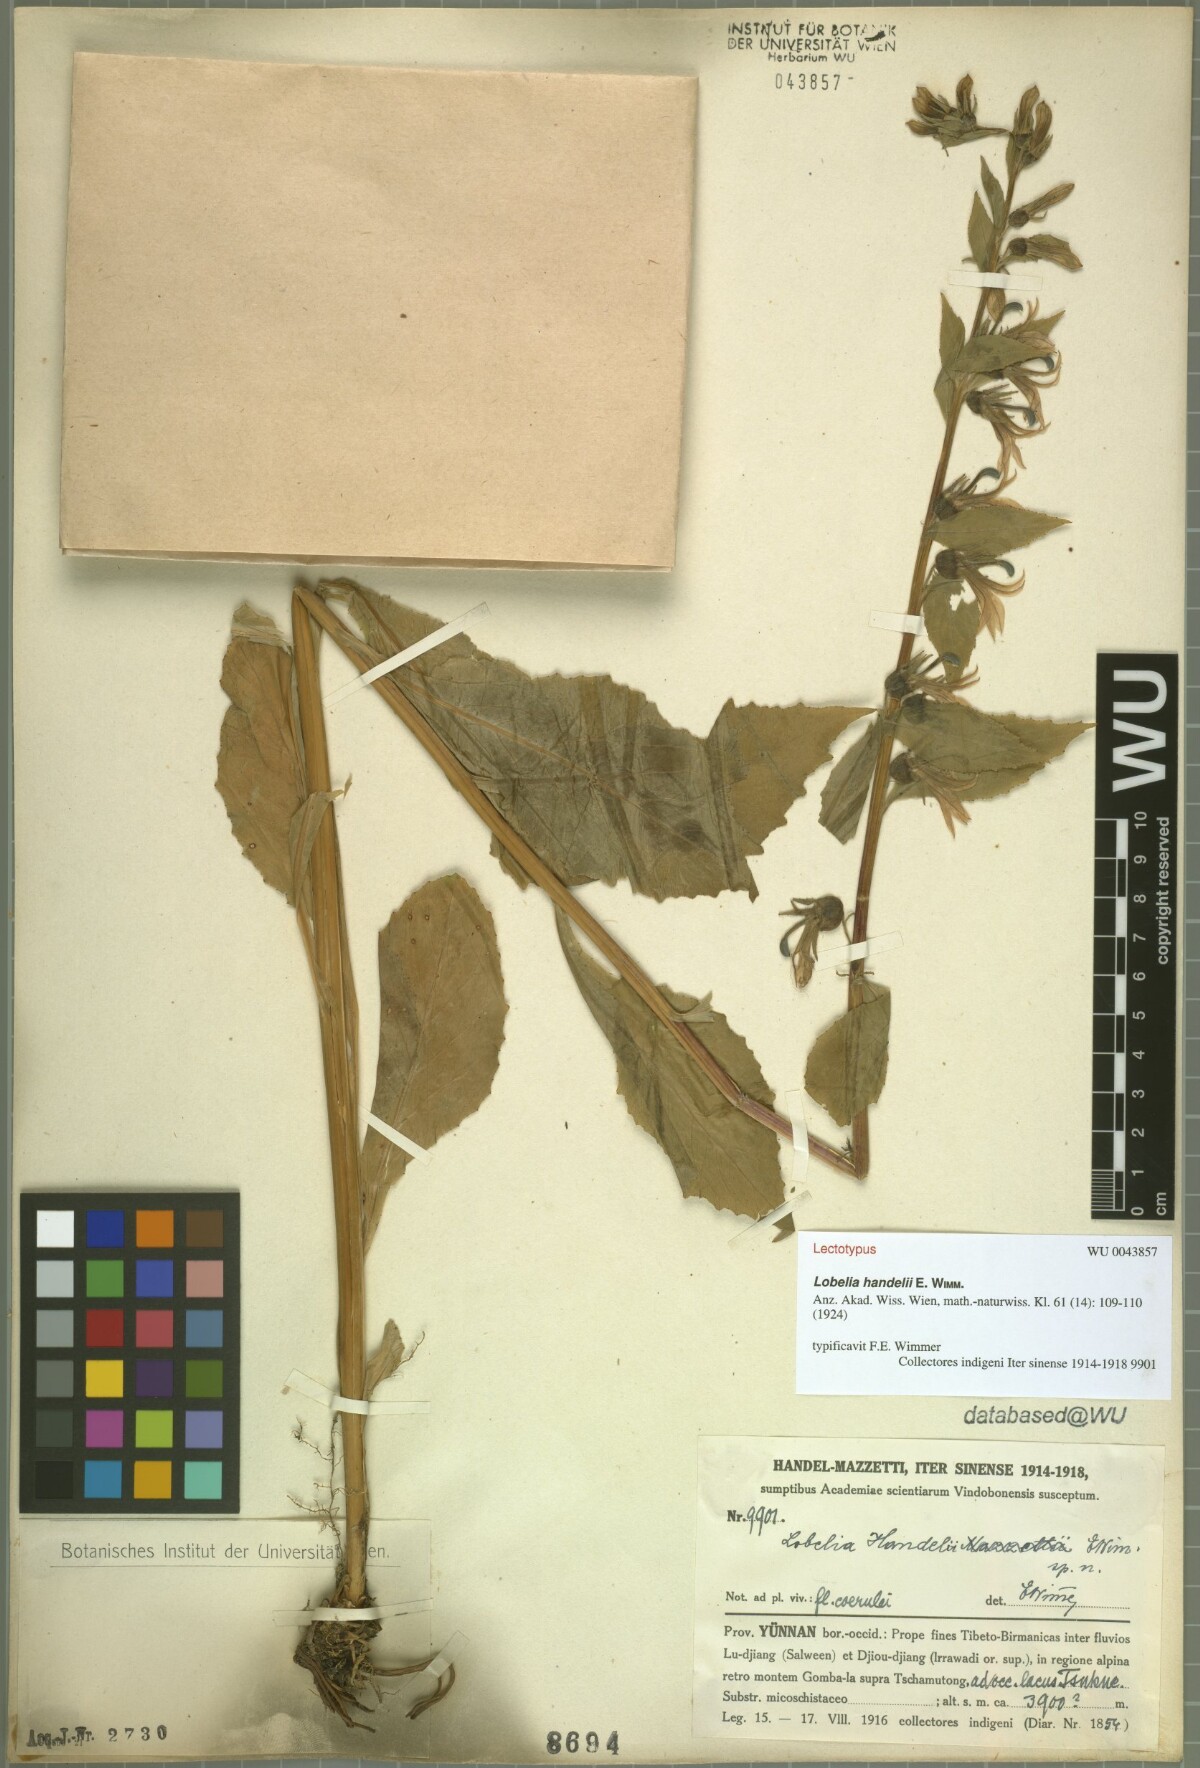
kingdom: Plantae
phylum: Tracheophyta
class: Magnoliopsida
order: Asterales
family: Campanulaceae
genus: Lobelia
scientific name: Lobelia pleotricha
